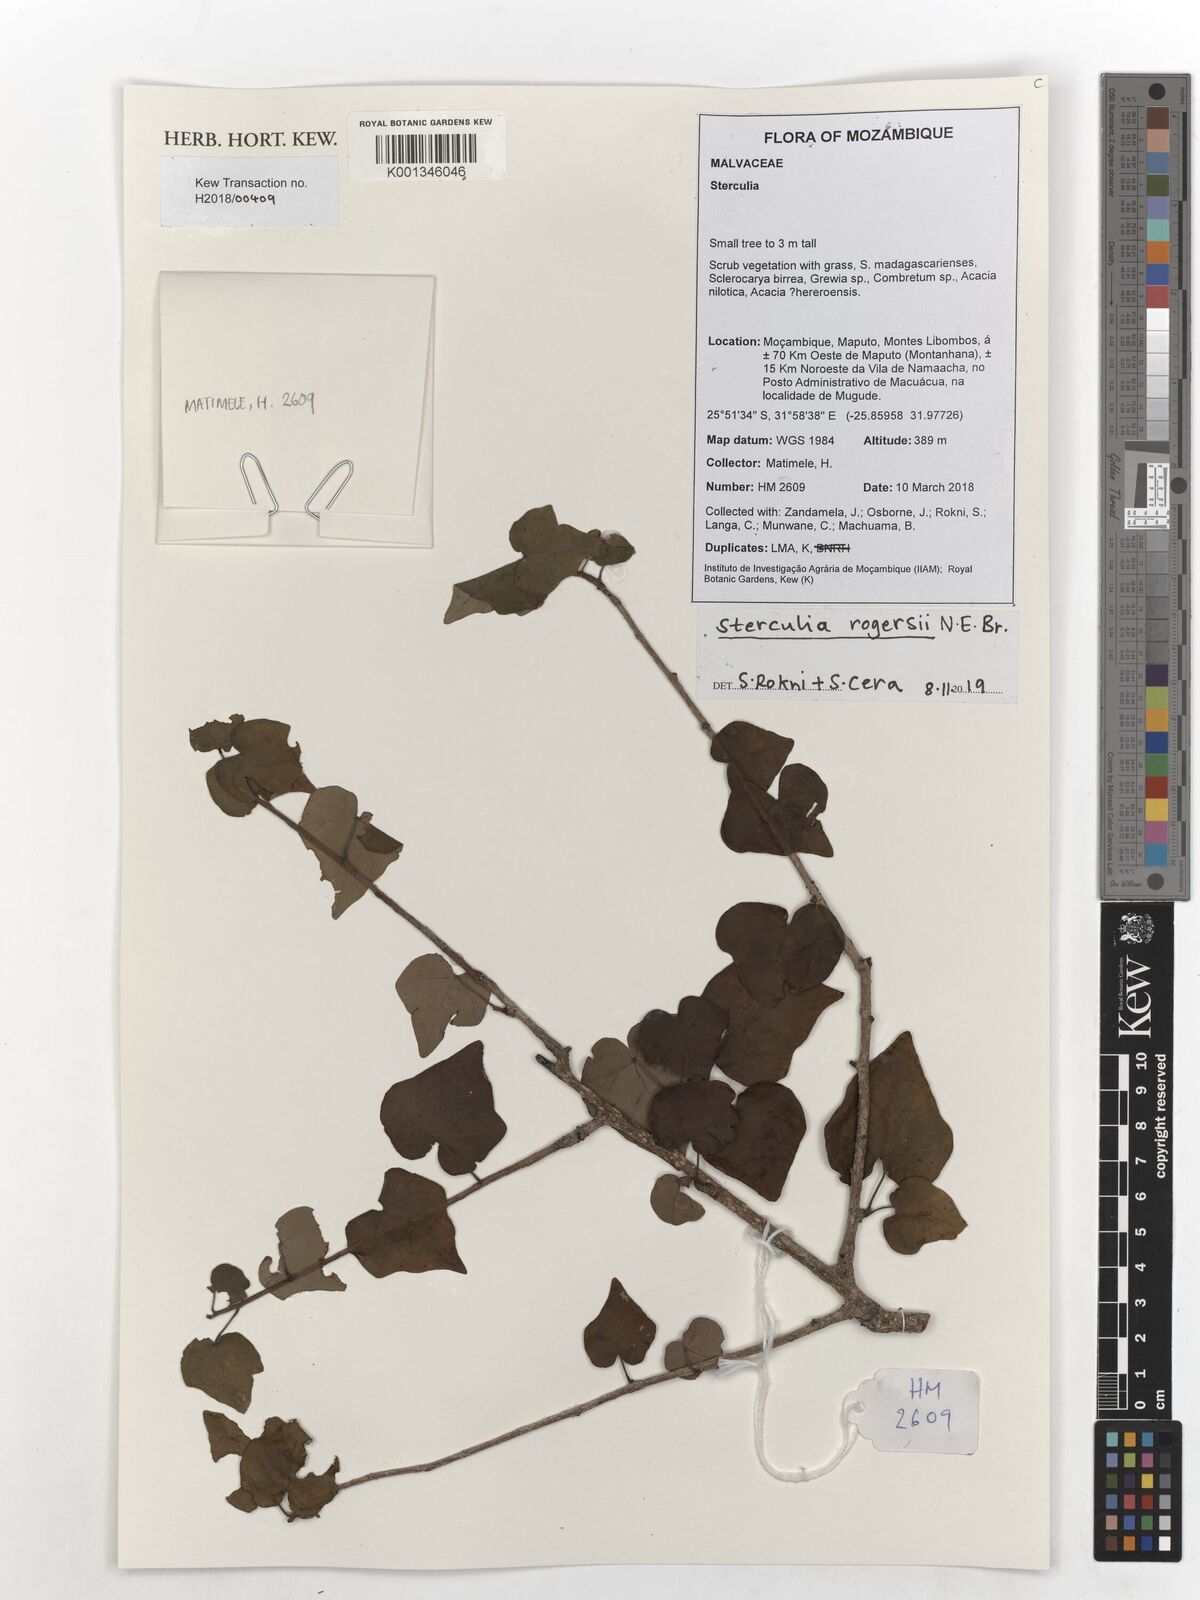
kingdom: Plantae
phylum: Tracheophyta
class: Magnoliopsida
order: Malvales
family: Malvaceae
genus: Sterculia
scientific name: Sterculia rogersii
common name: Star-chestnut
